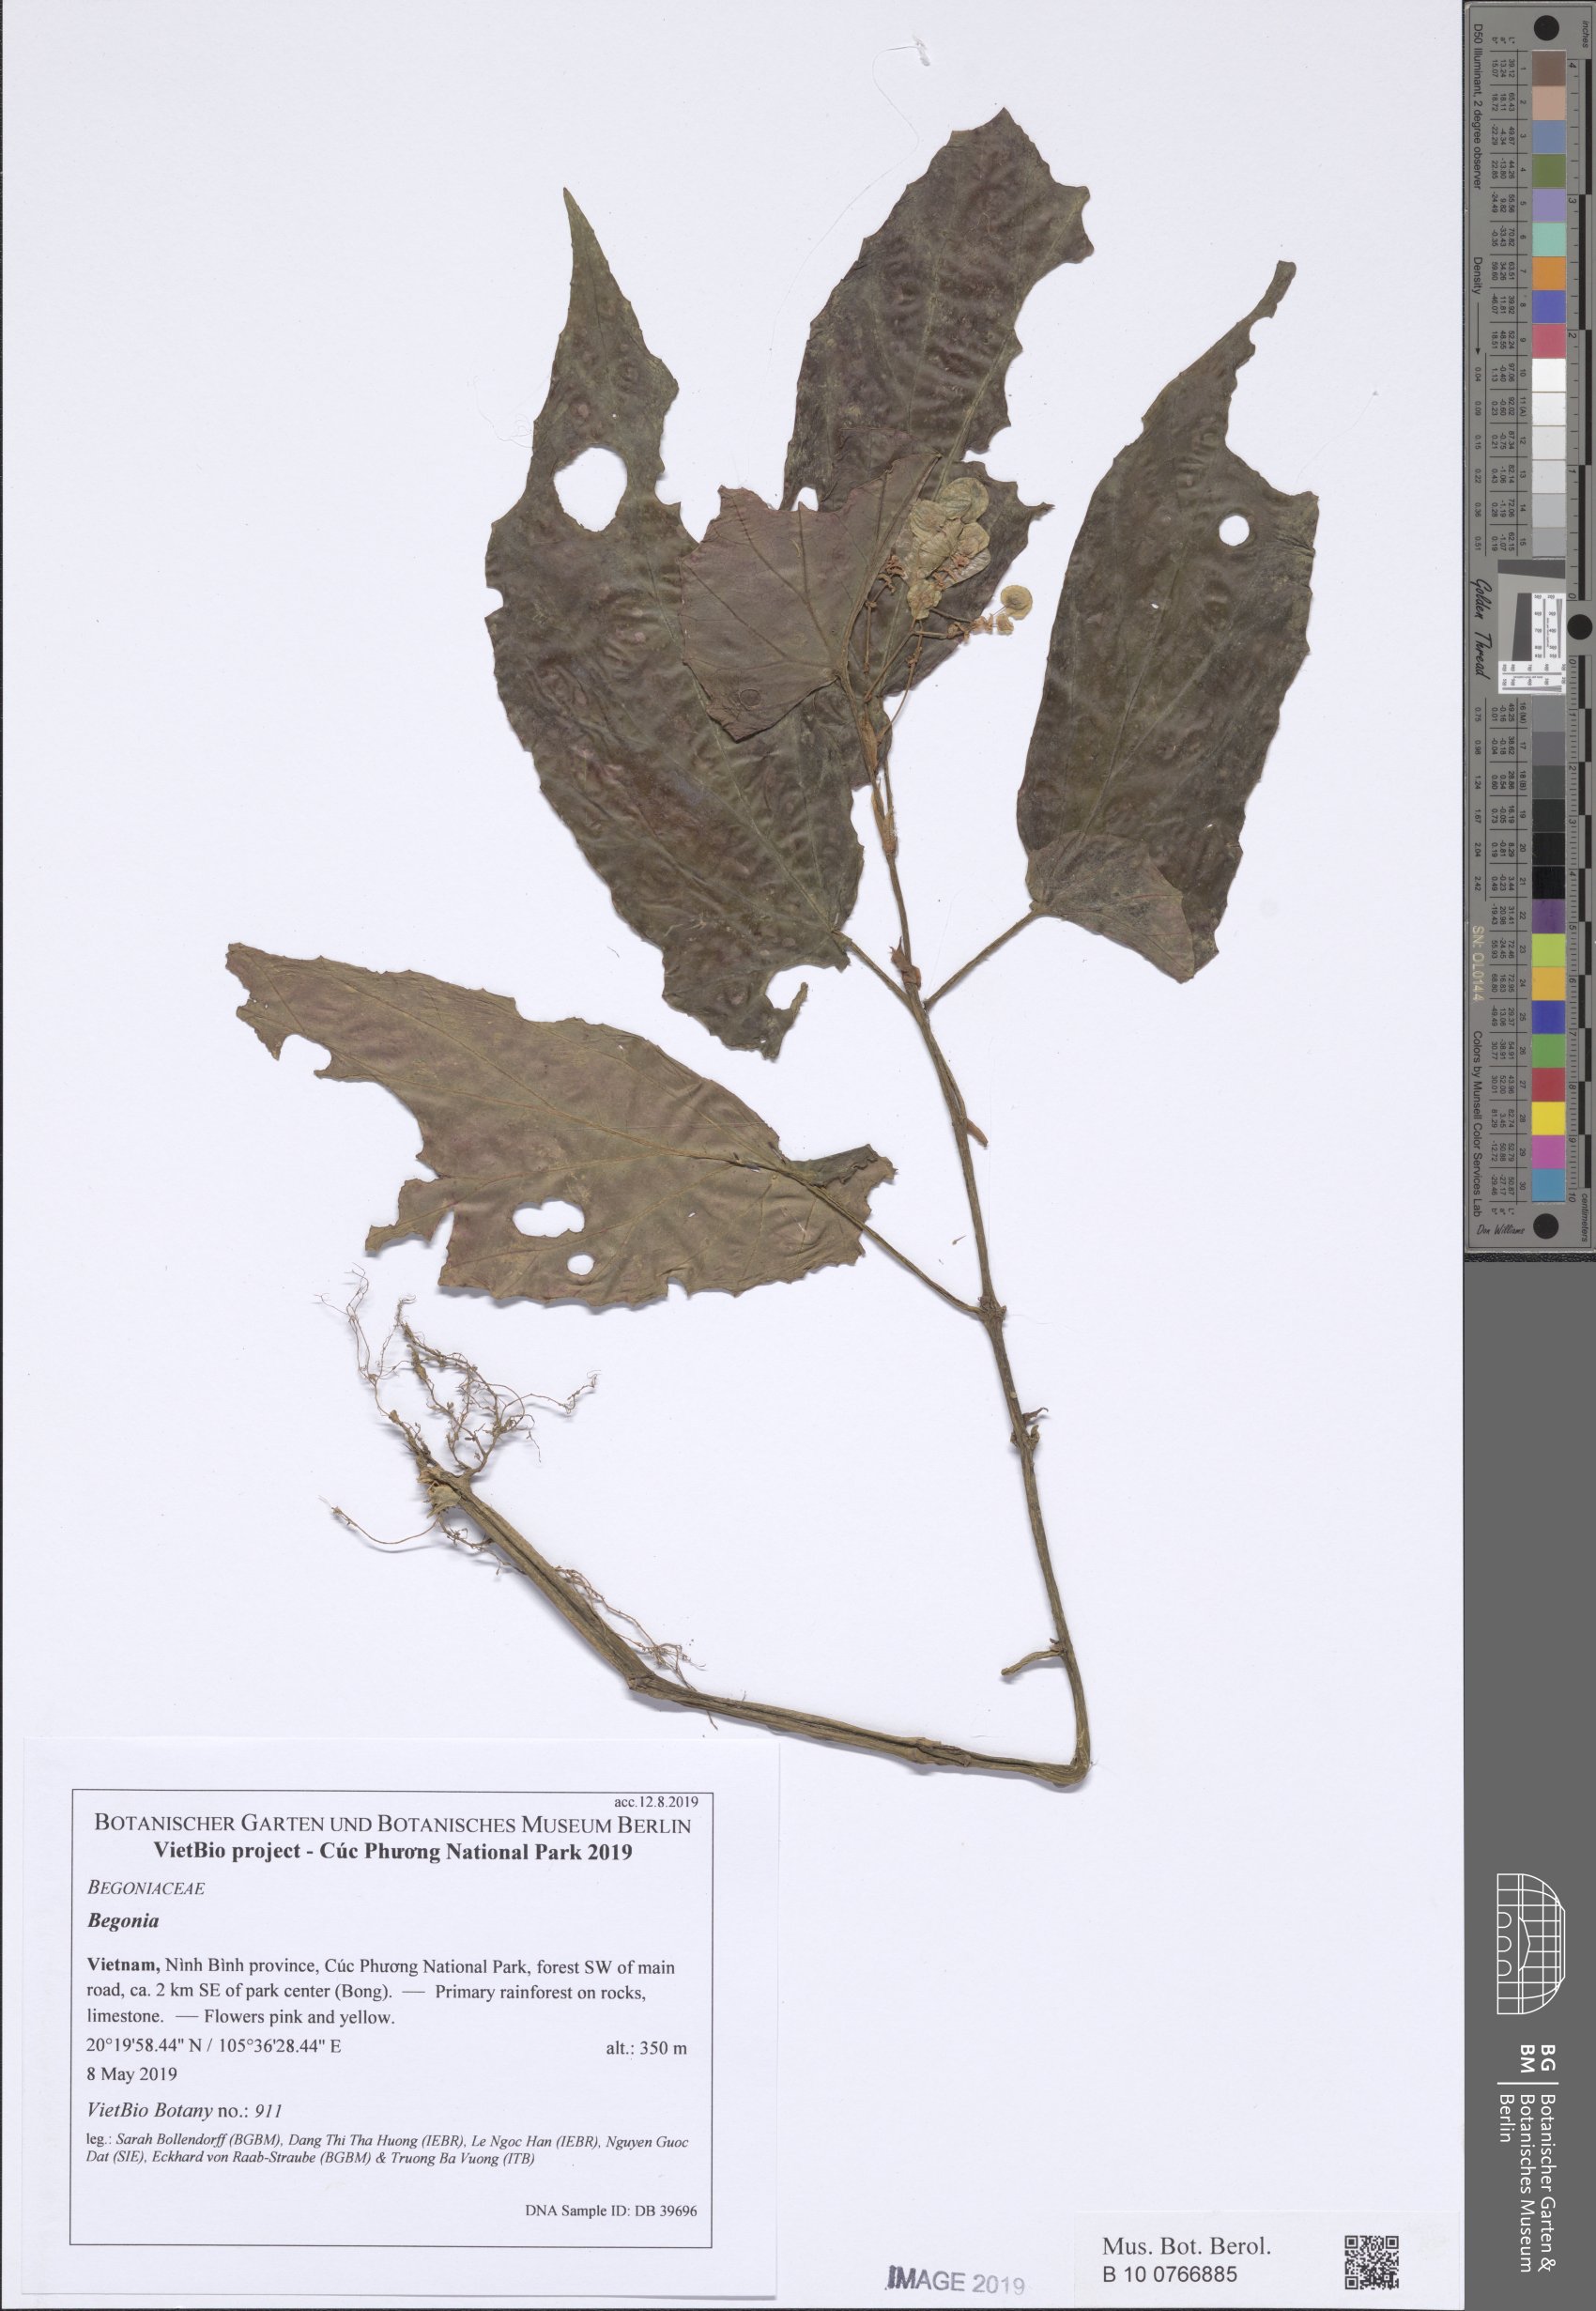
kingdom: Plantae
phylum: Tracheophyta
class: Magnoliopsida
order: Cucurbitales
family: Begoniaceae
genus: Begonia
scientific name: Begonia cucphuongensis
